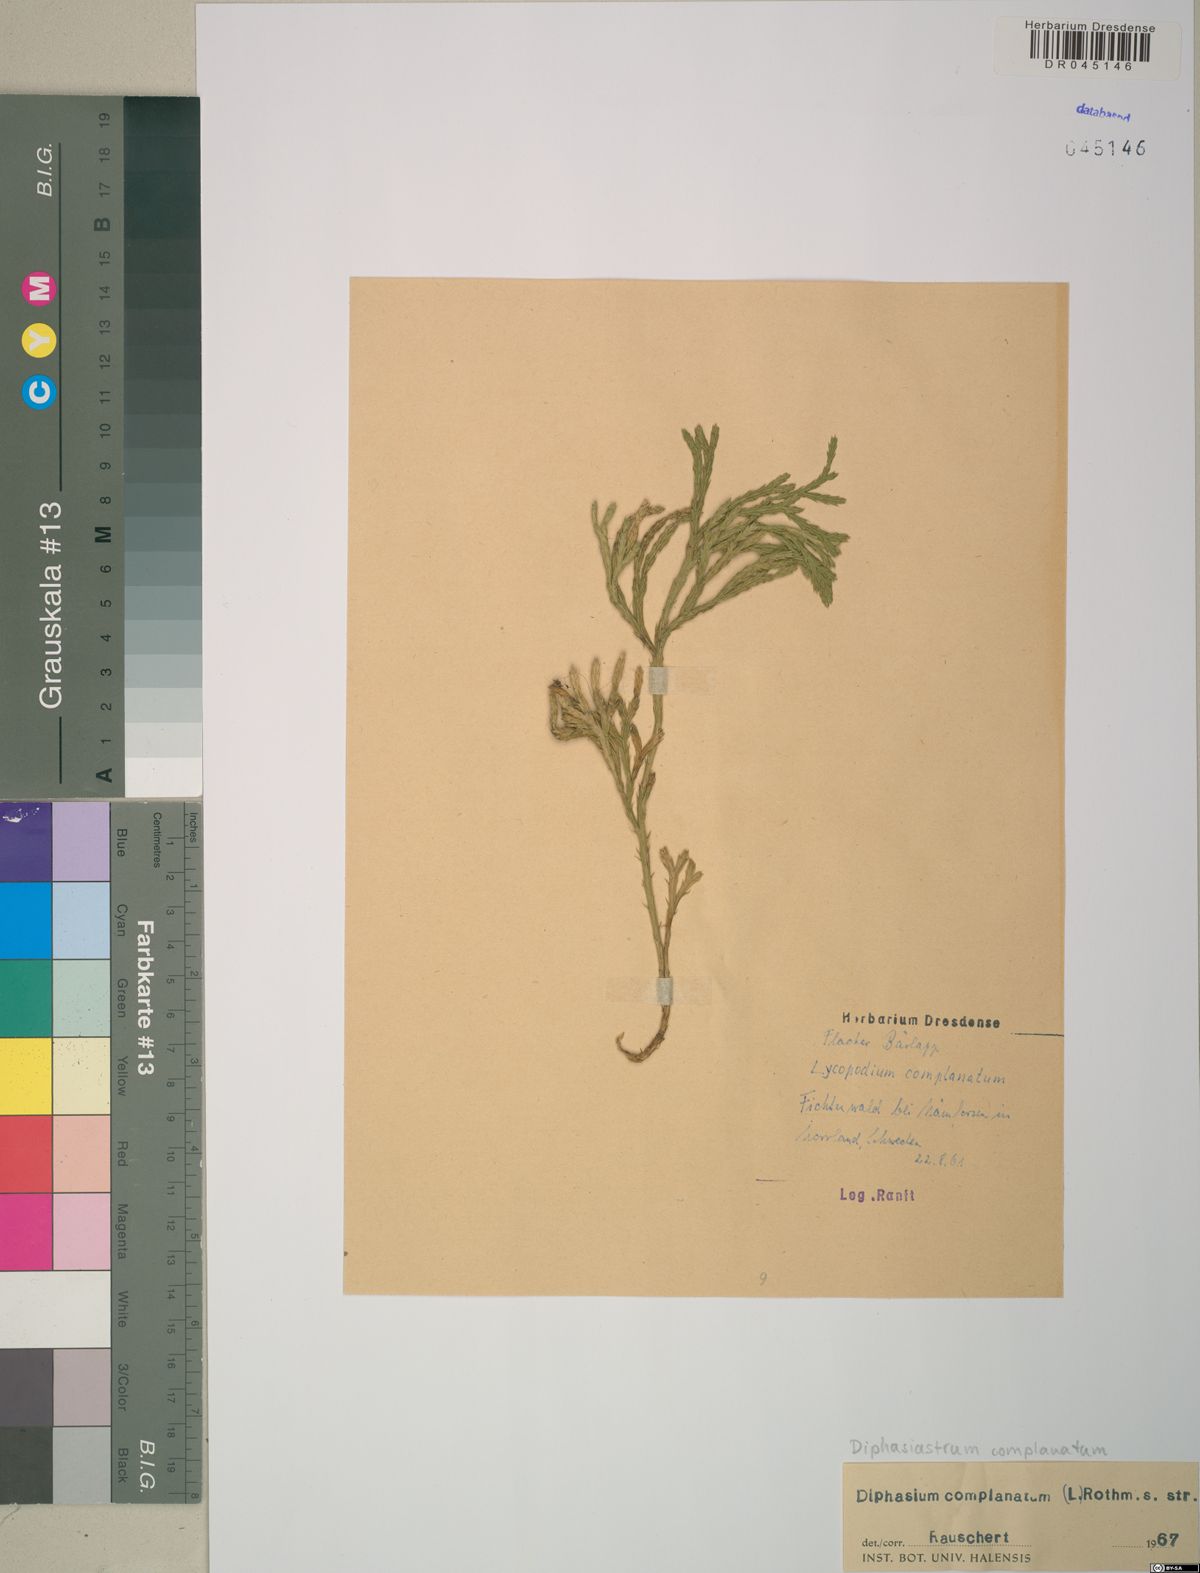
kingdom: Plantae
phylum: Tracheophyta
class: Lycopodiopsida
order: Lycopodiales
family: Lycopodiaceae
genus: Diphasiastrum
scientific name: Diphasiastrum complanatum
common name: Northern running-pine
